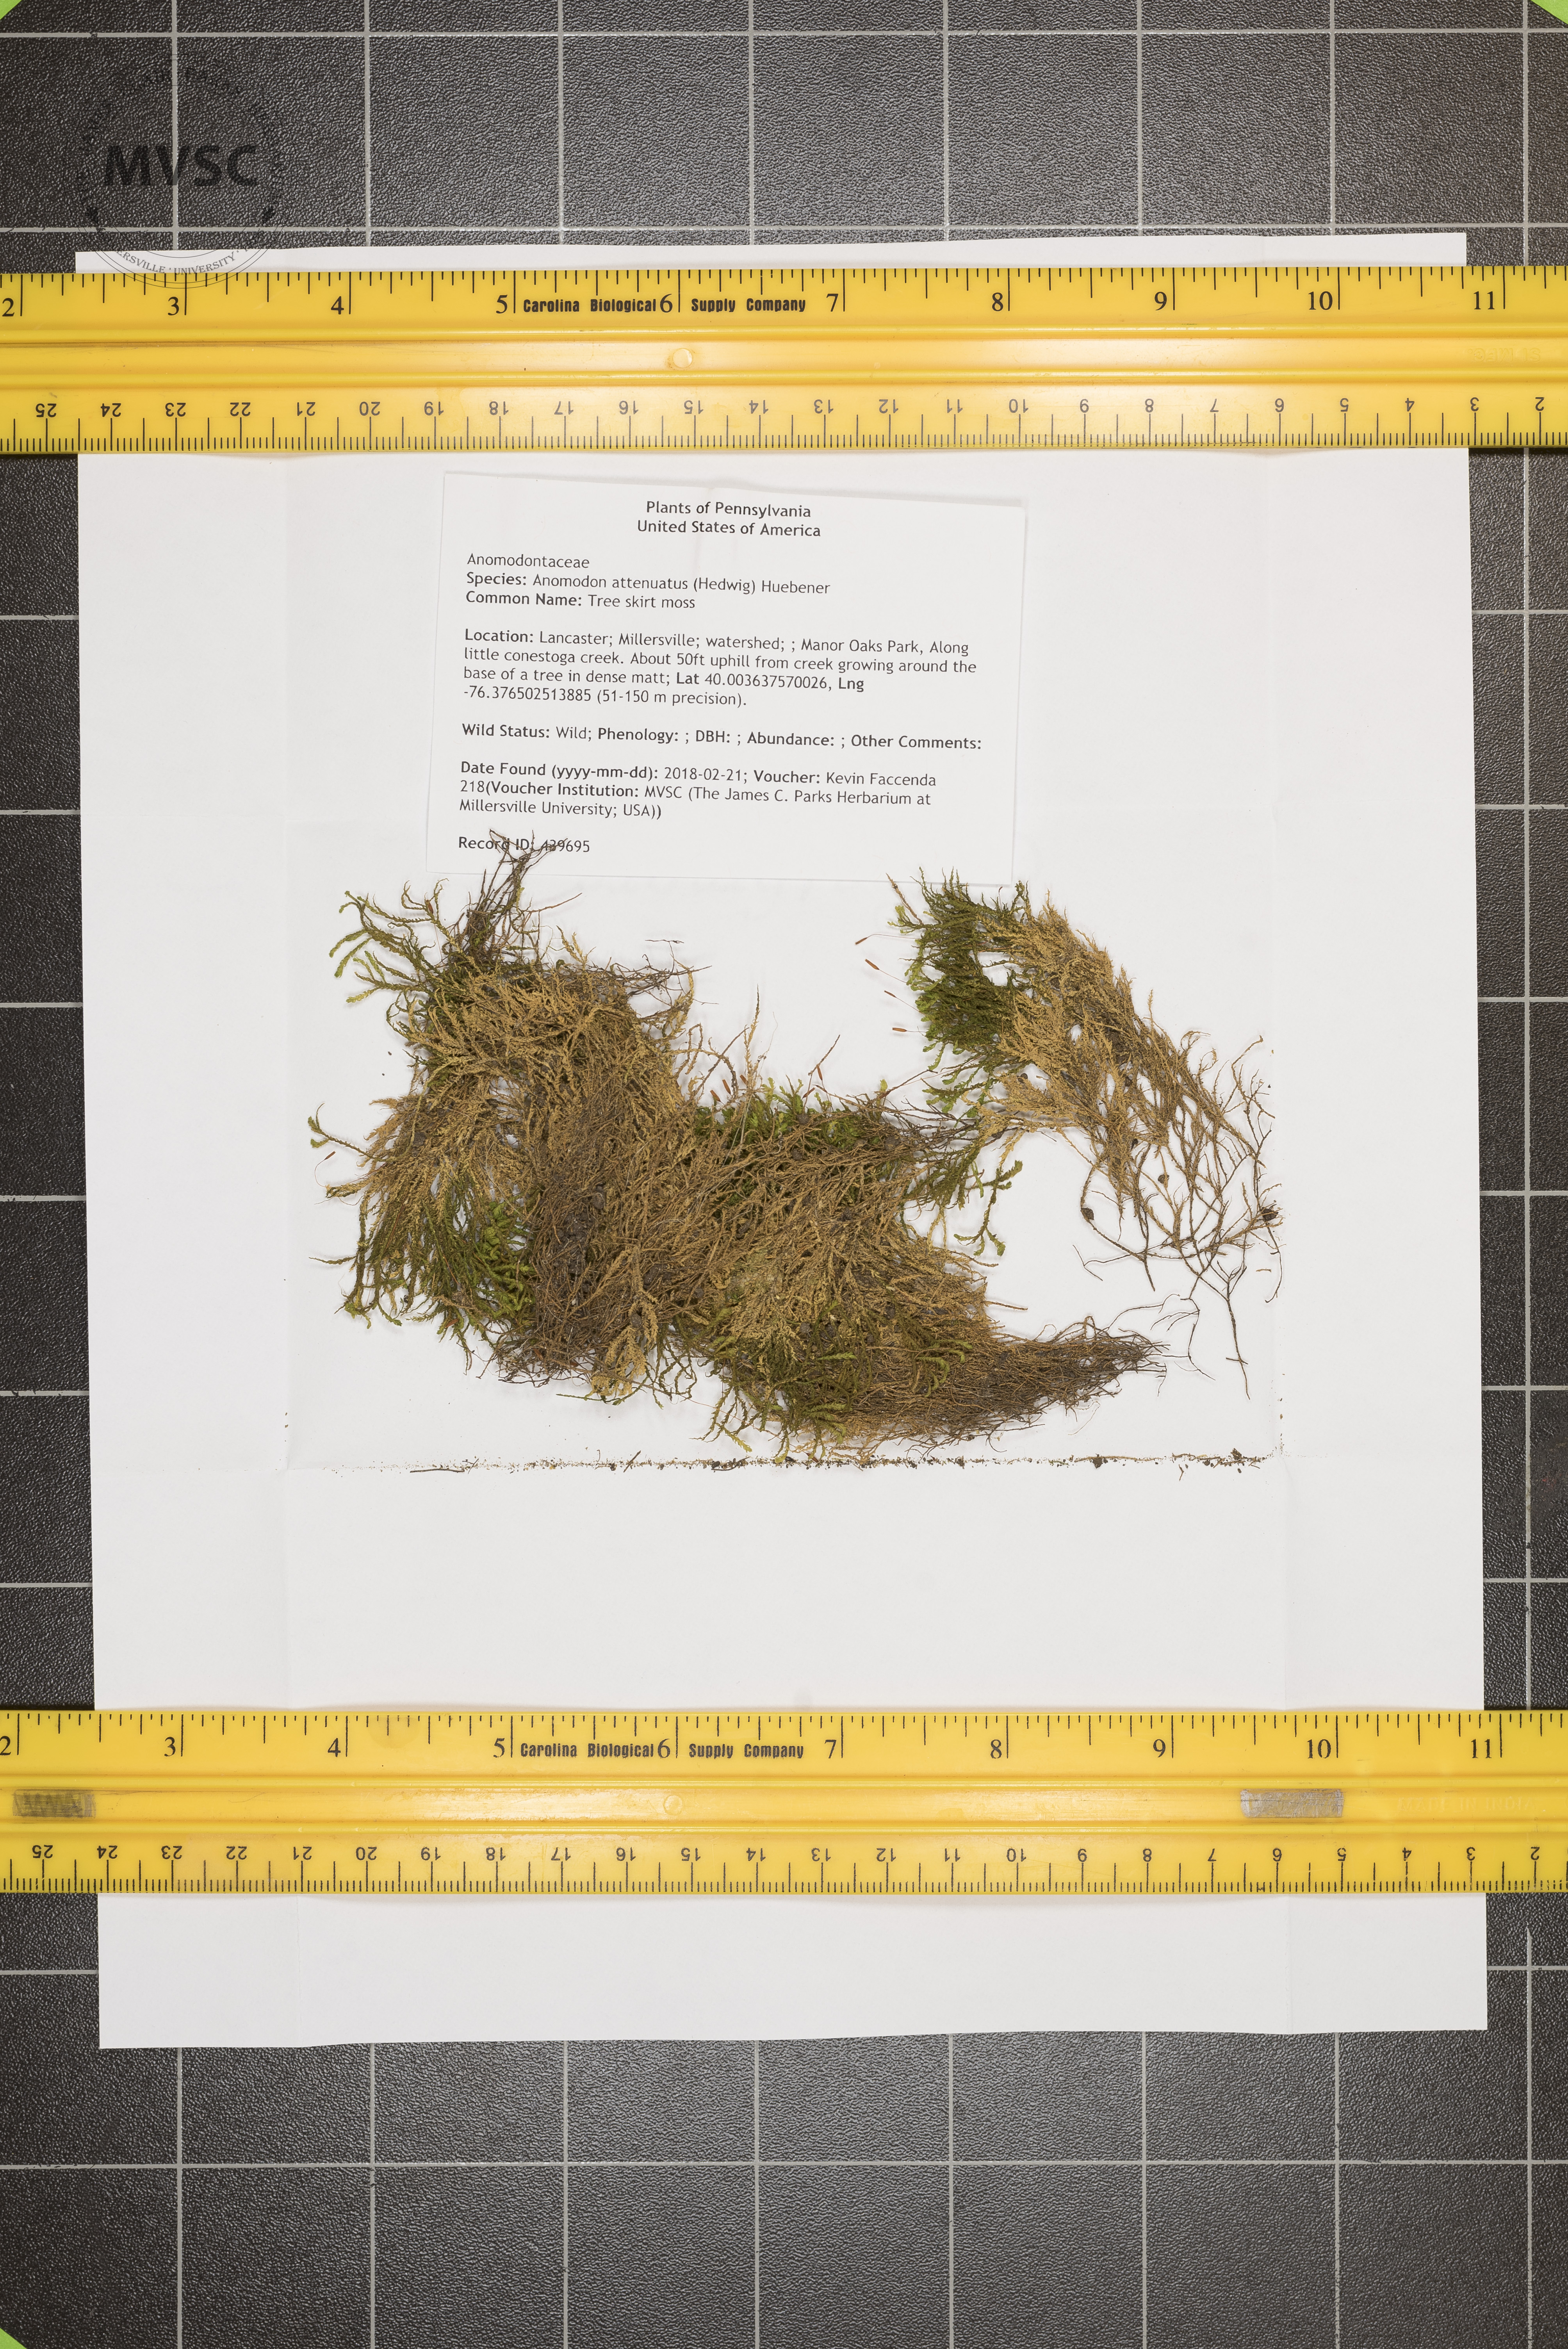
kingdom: Plantae
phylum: Bryophyta
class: Bryopsida
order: Hypnales
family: Neckeraceae
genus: Pseudanomodon
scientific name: Pseudanomodon attenuatus
